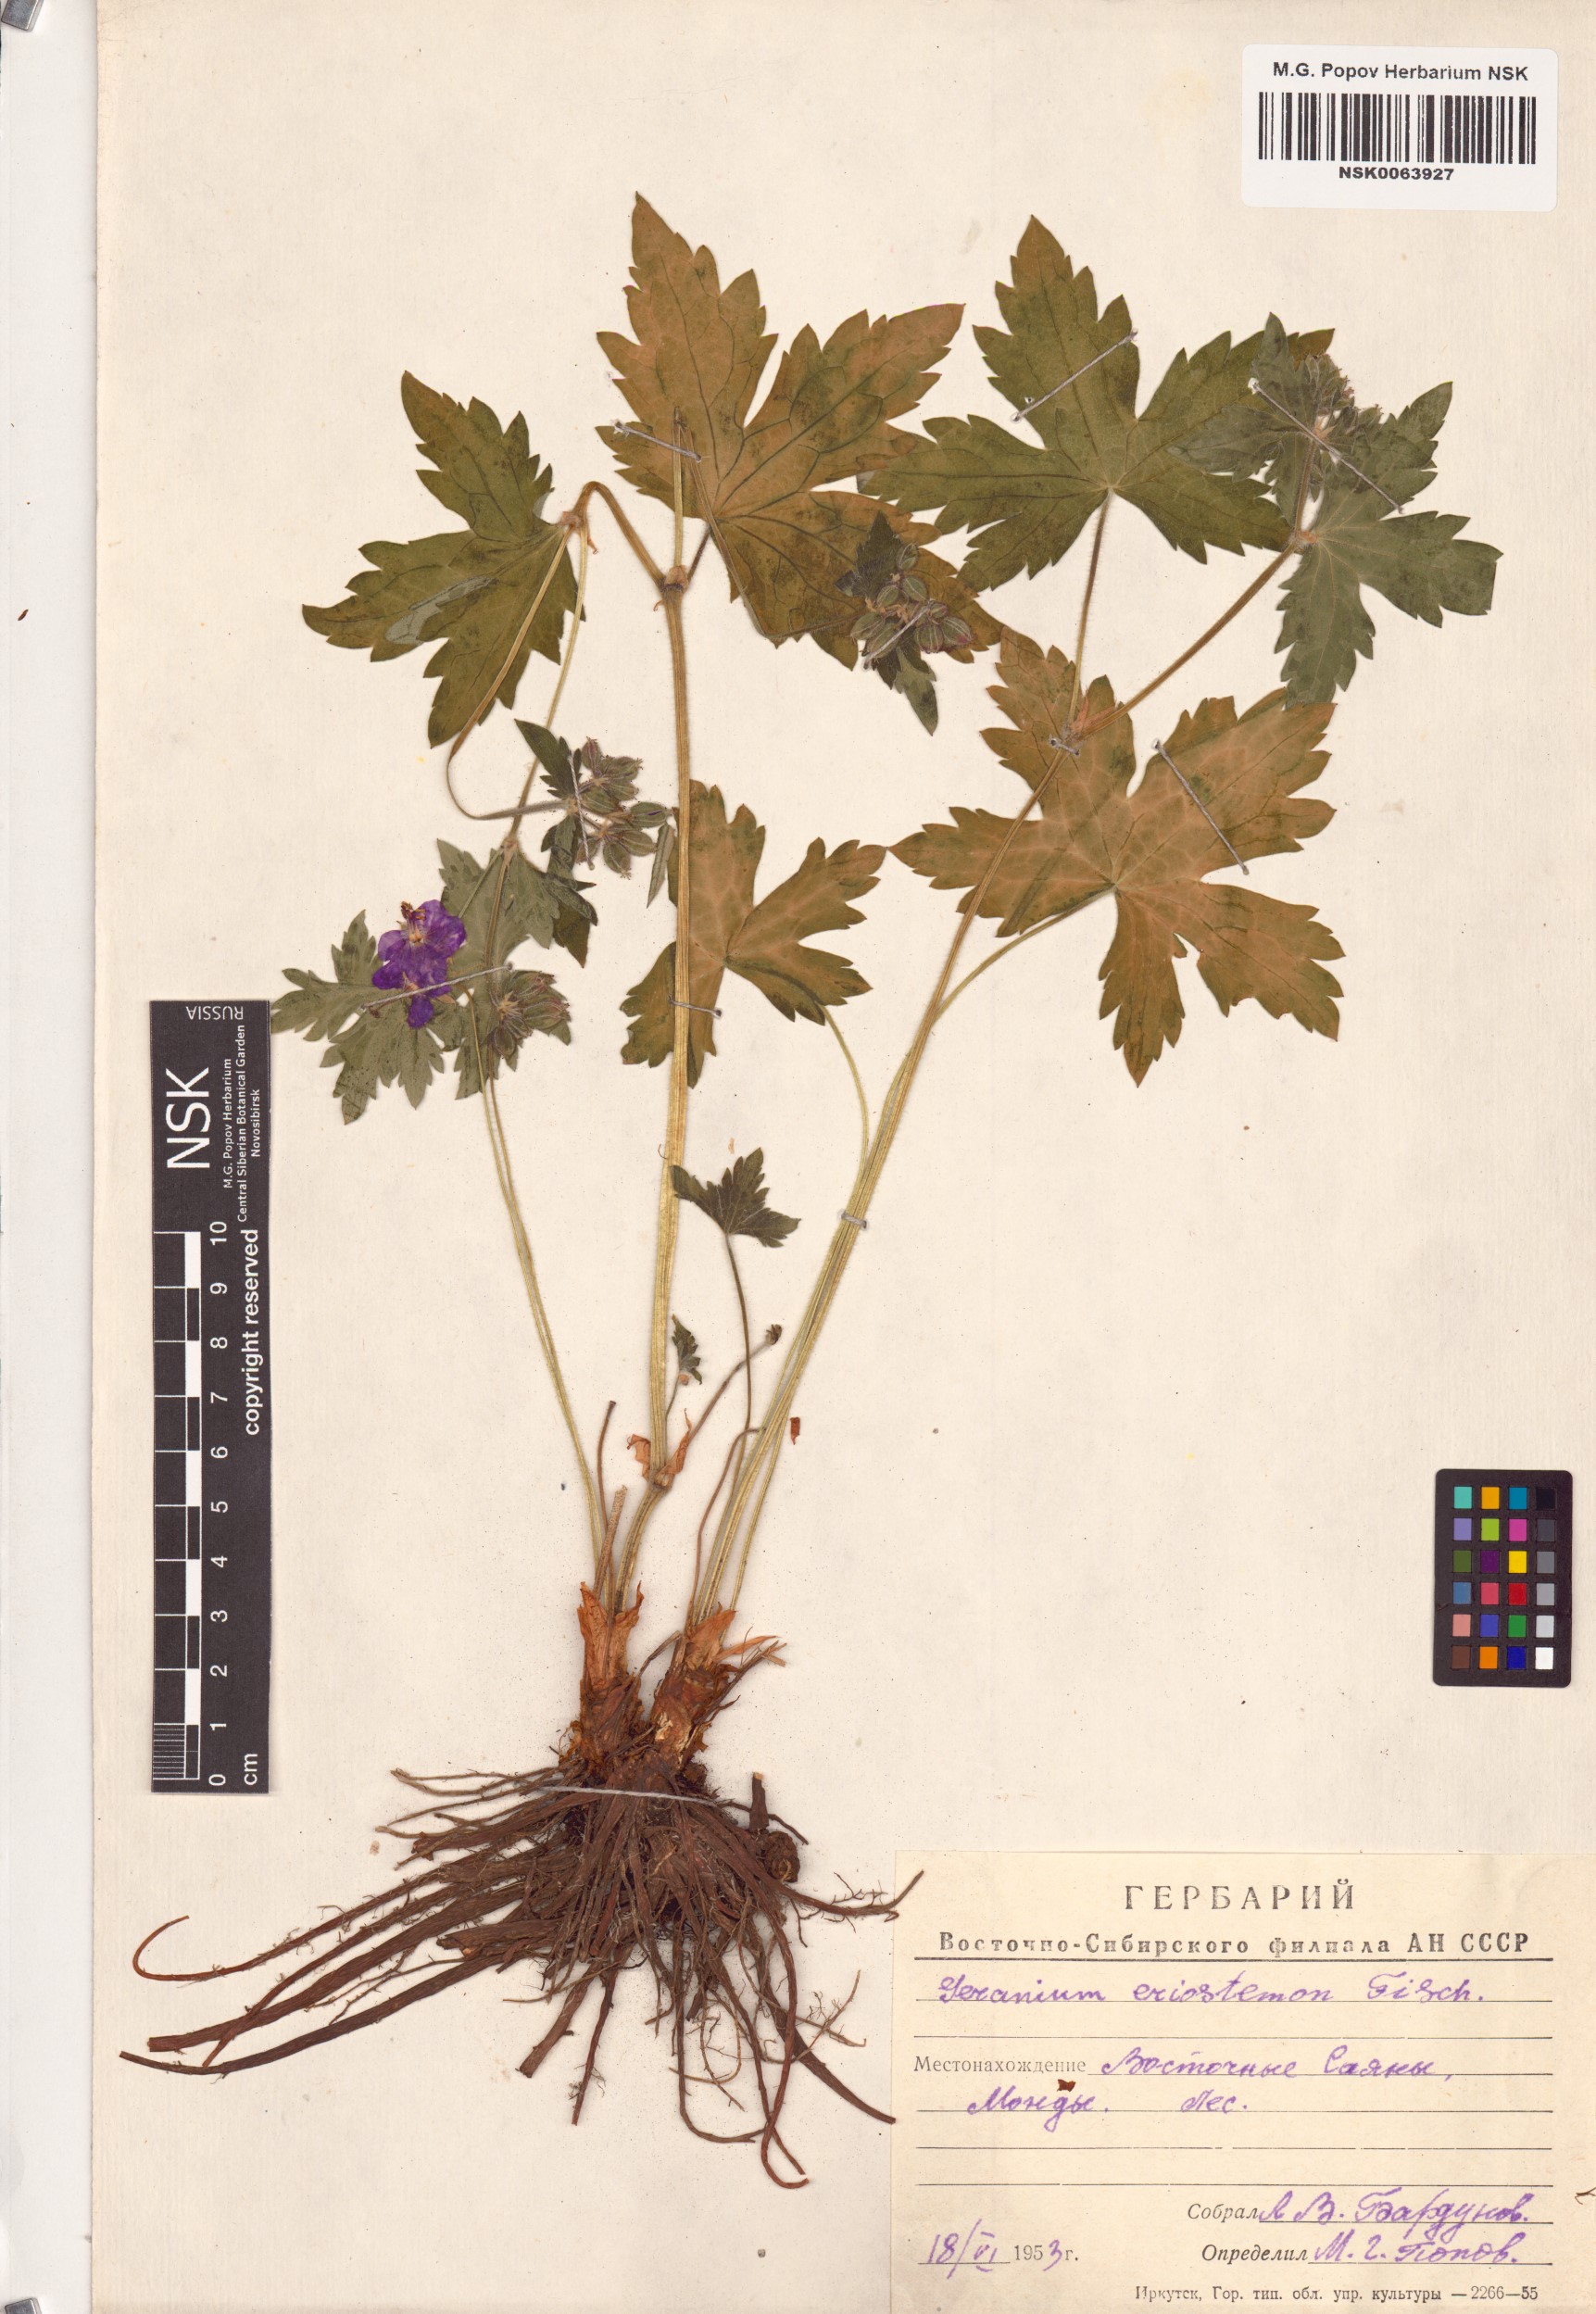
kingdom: Plantae
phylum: Tracheophyta
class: Magnoliopsida
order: Geraniales
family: Geraniaceae
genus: Geranium
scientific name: Geranium platyanthum
